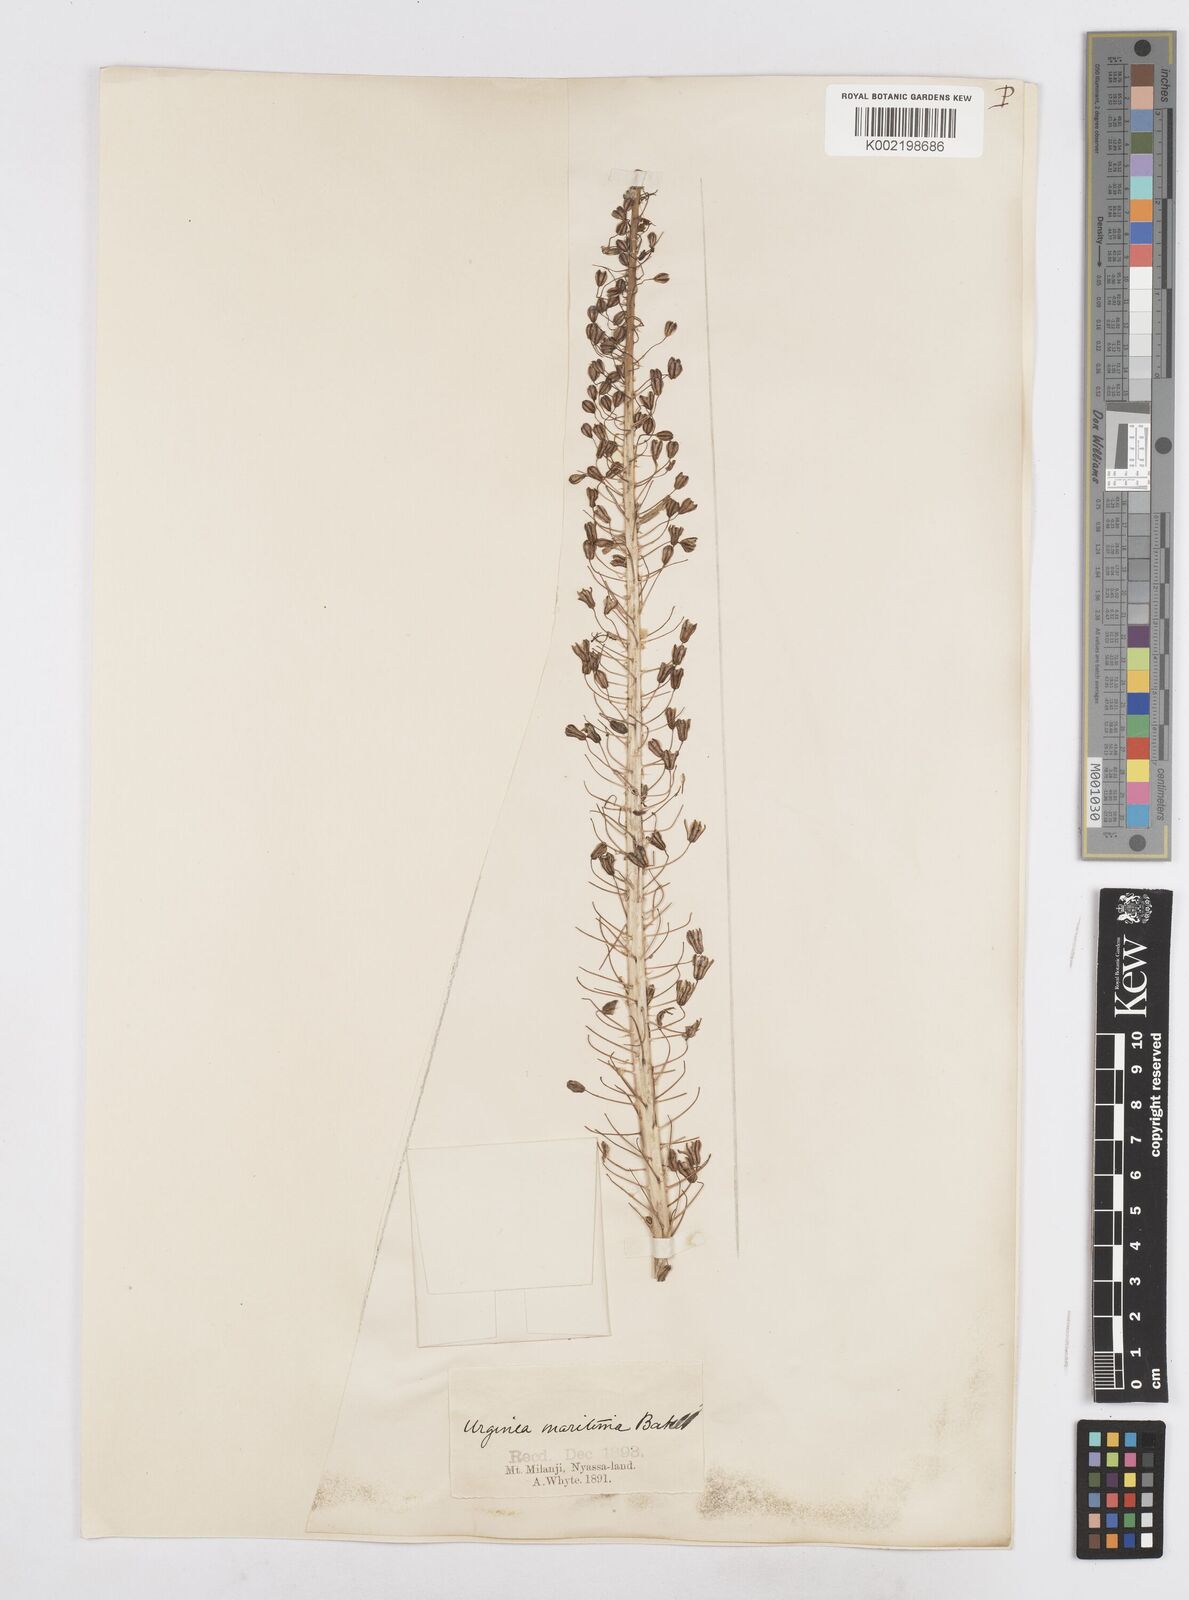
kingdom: Plantae
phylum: Tracheophyta
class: Liliopsida
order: Asparagales
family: Asparagaceae
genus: Drimia
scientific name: Drimia altissima
